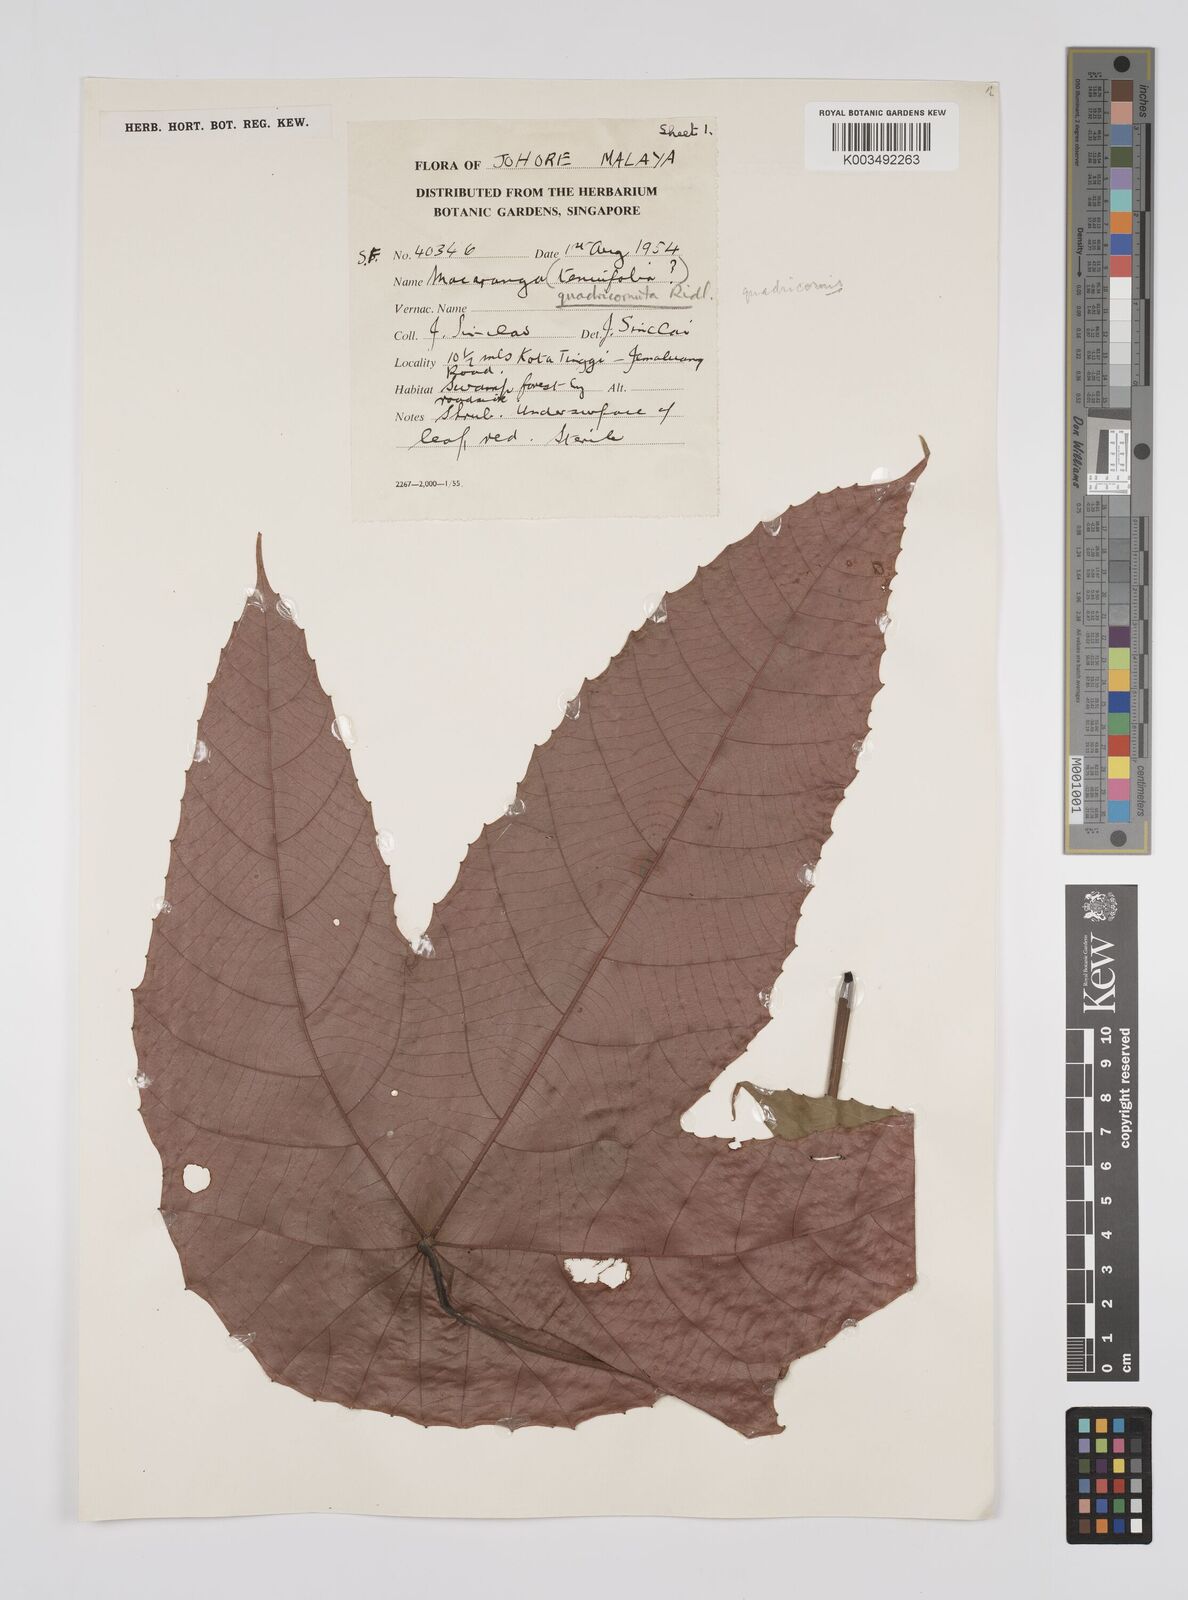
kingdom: Plantae
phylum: Tracheophyta
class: Magnoliopsida
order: Malpighiales
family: Euphorbiaceae
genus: Macaranga
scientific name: Macaranga triloba
